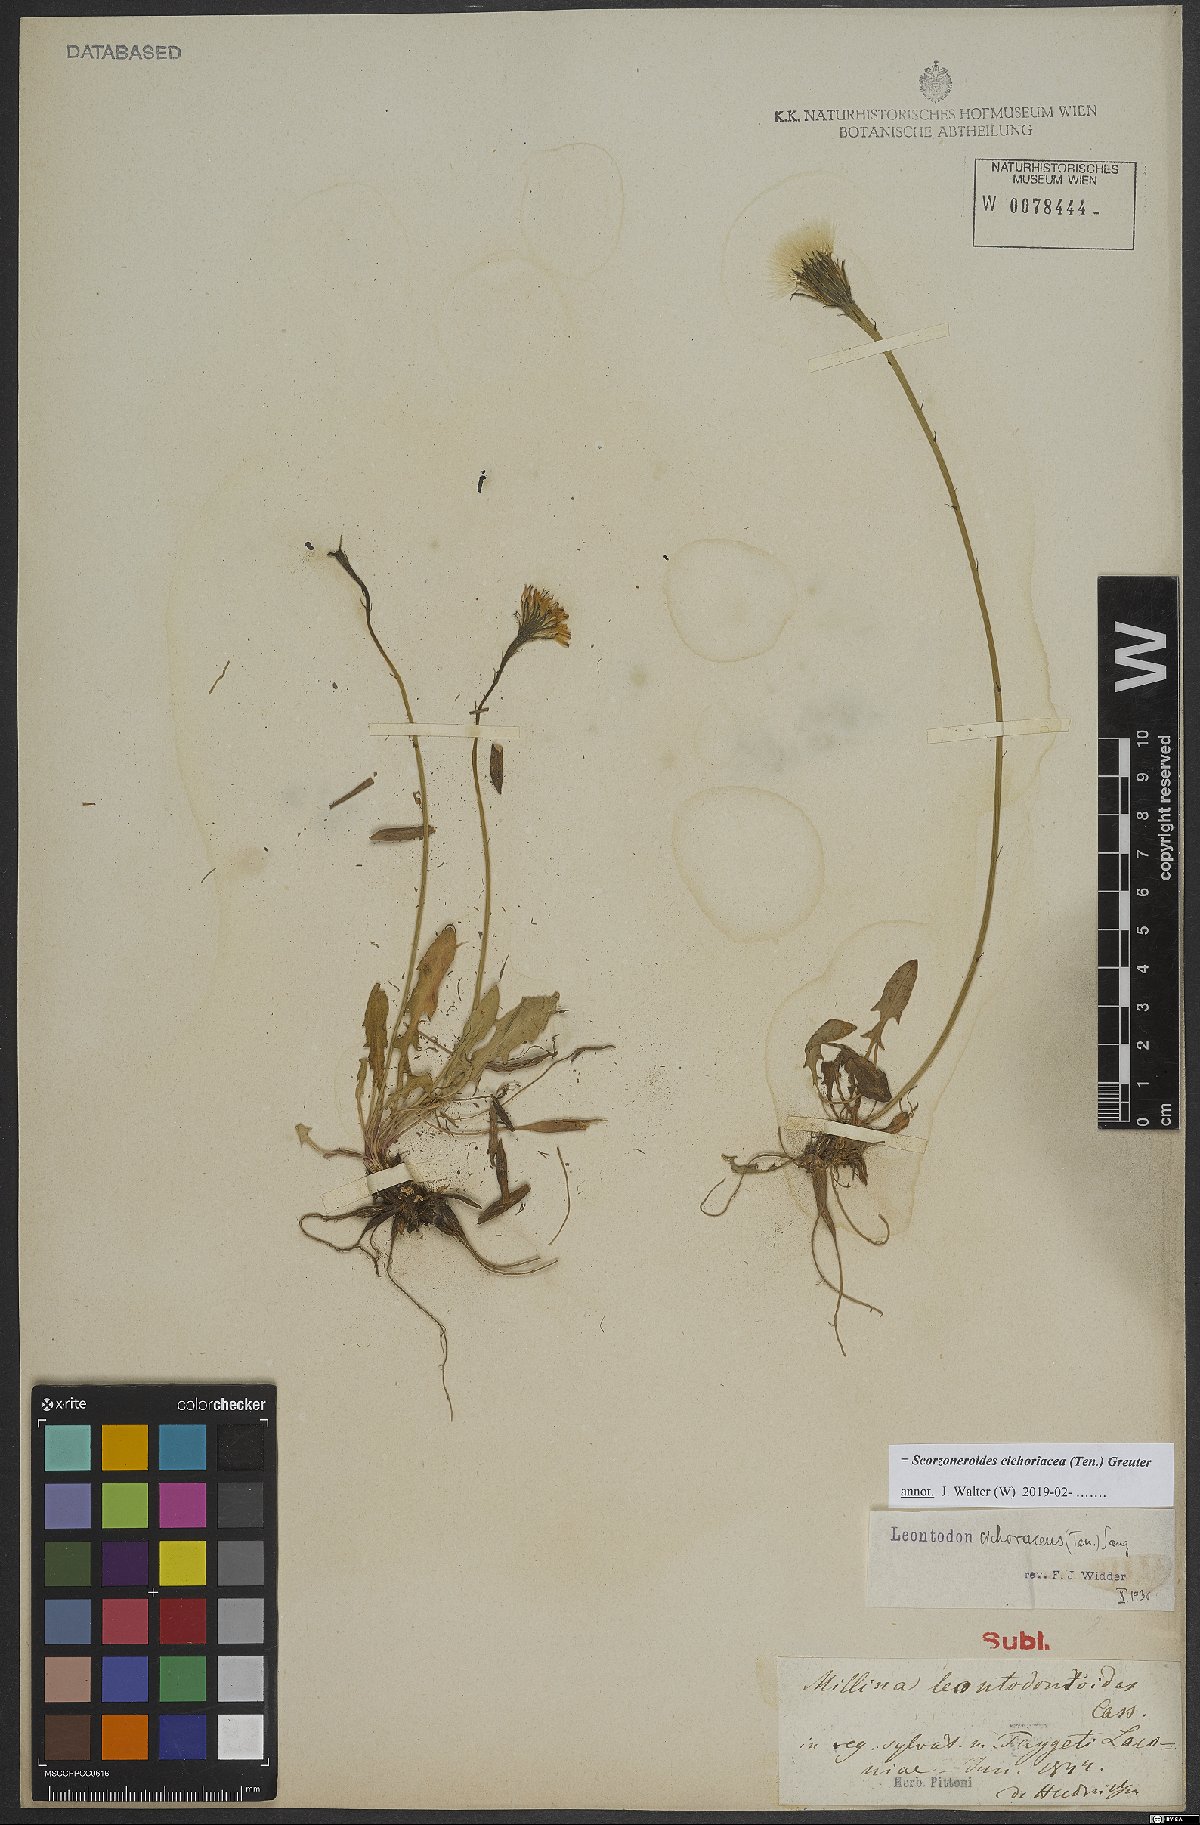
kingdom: Plantae
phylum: Tracheophyta
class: Magnoliopsida
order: Asterales
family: Asteraceae
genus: Scorzoneroides
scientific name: Scorzoneroides cichoriacea
